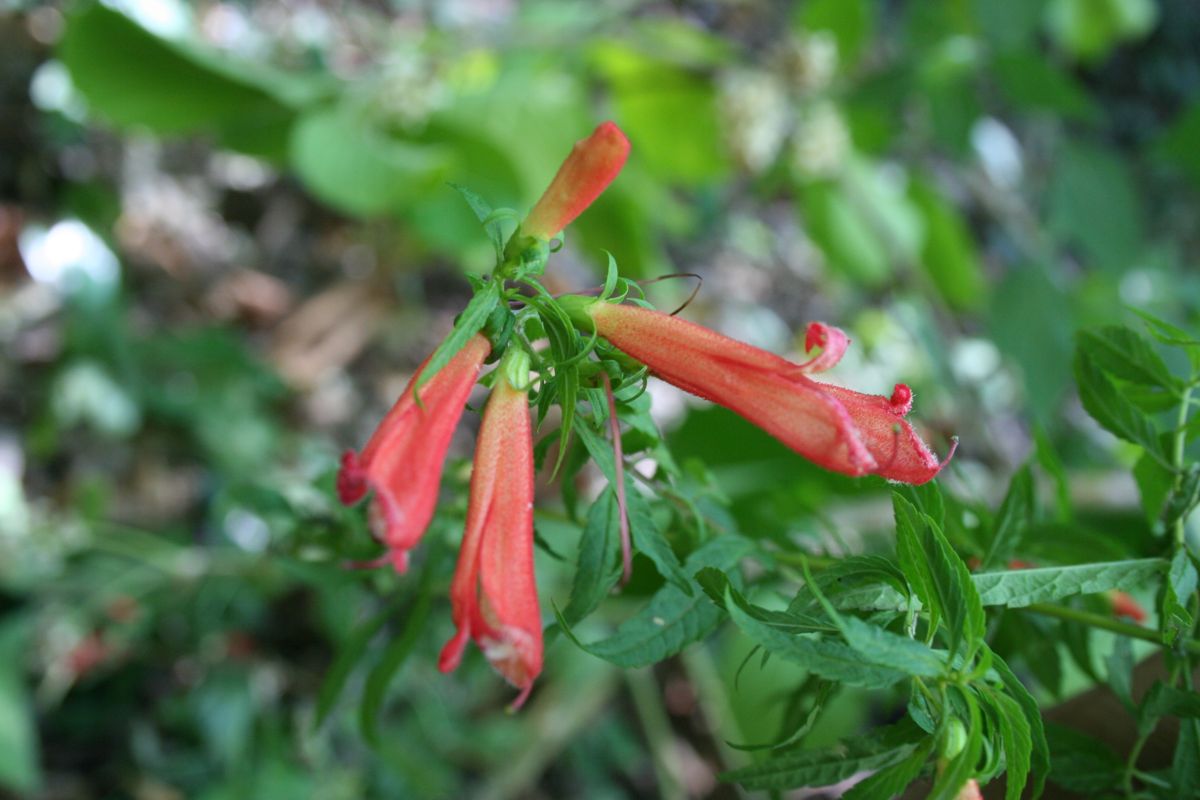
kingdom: Plantae
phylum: Tracheophyta
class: Magnoliopsida
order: Lamiales
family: Orobanchaceae
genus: Lamourouxia
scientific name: Lamourouxia lanceolata
